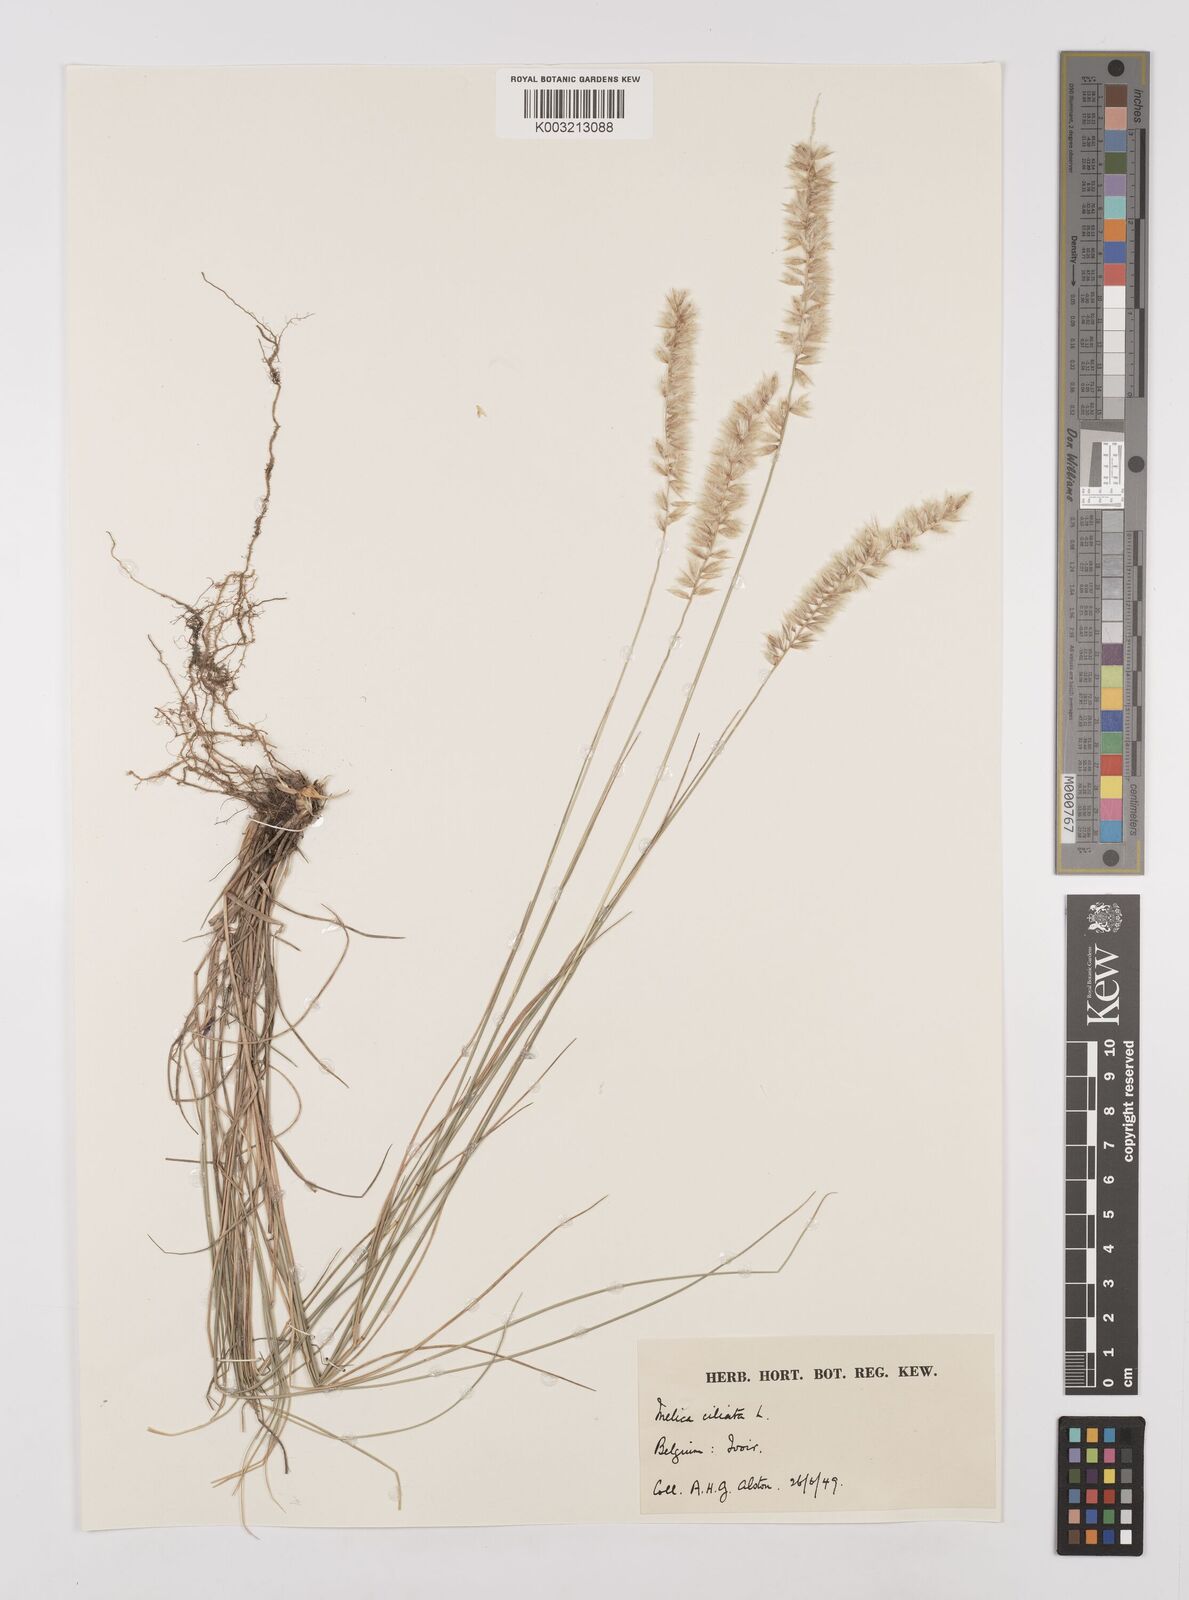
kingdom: Plantae
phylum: Tracheophyta
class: Liliopsida
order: Poales
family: Poaceae
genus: Melica
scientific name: Melica ciliata
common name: Hairy melicgrass
